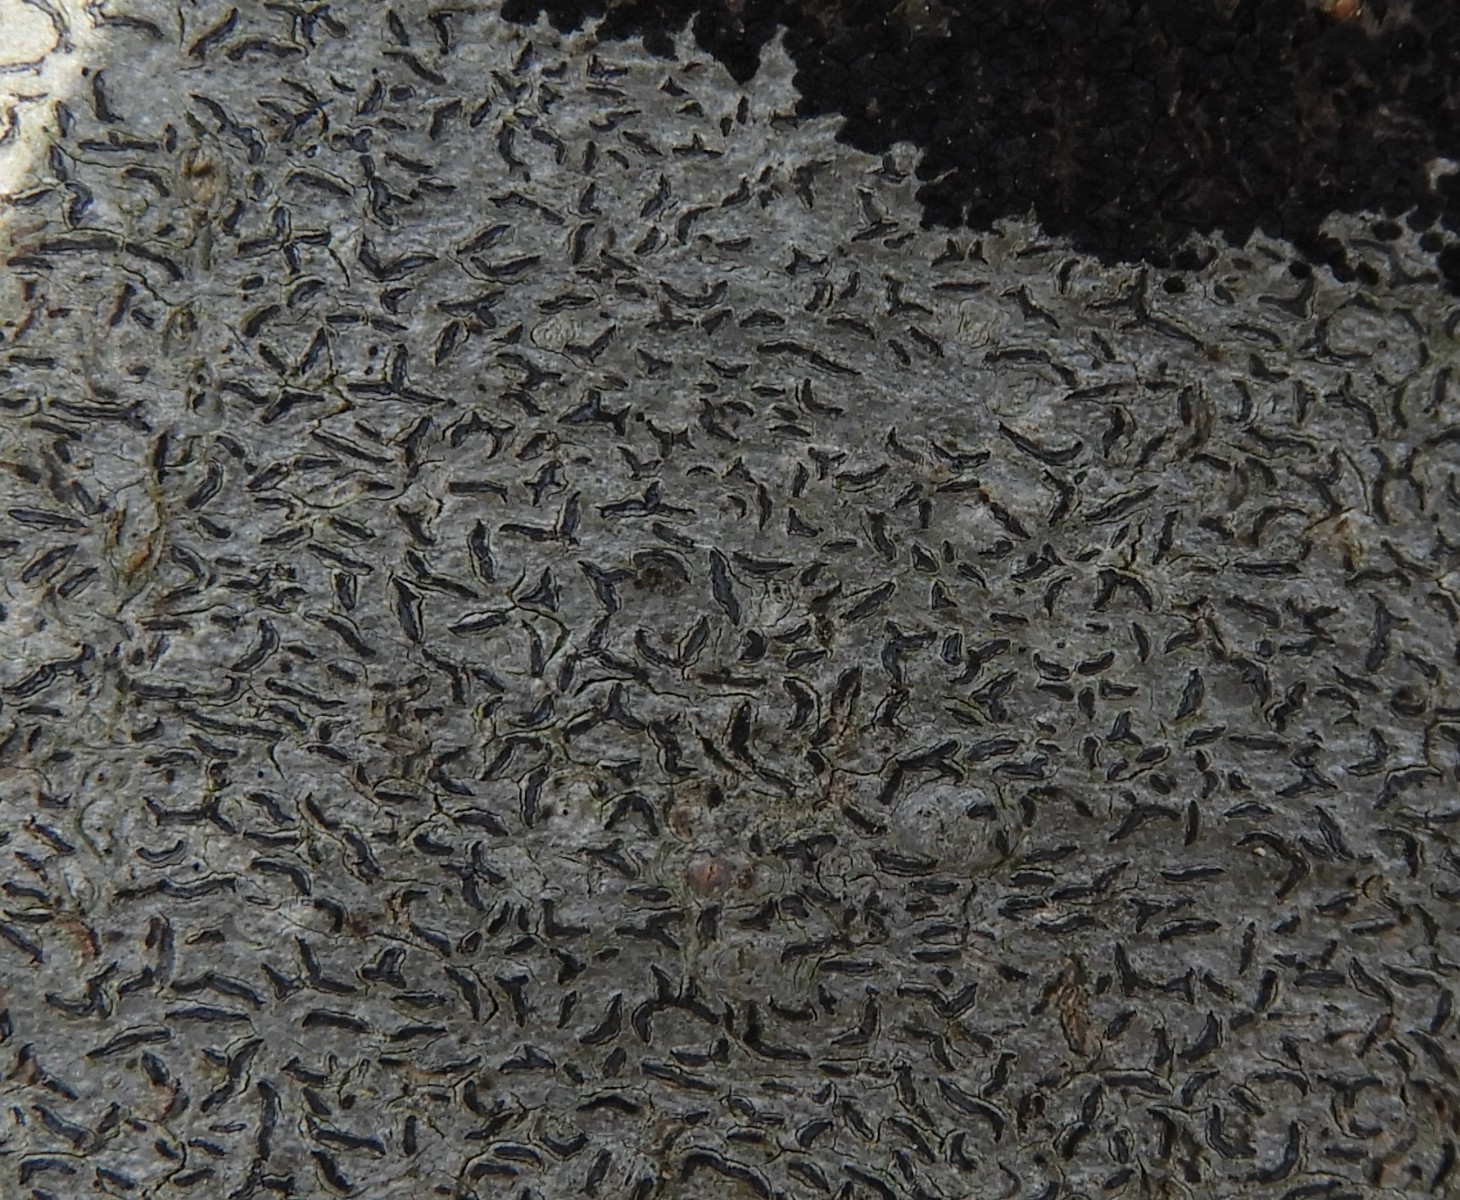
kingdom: Fungi
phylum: Ascomycota
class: Lecanoromycetes
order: Ostropales
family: Graphidaceae
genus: Graphis
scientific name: Graphis scripta
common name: almindelig skriftlav
